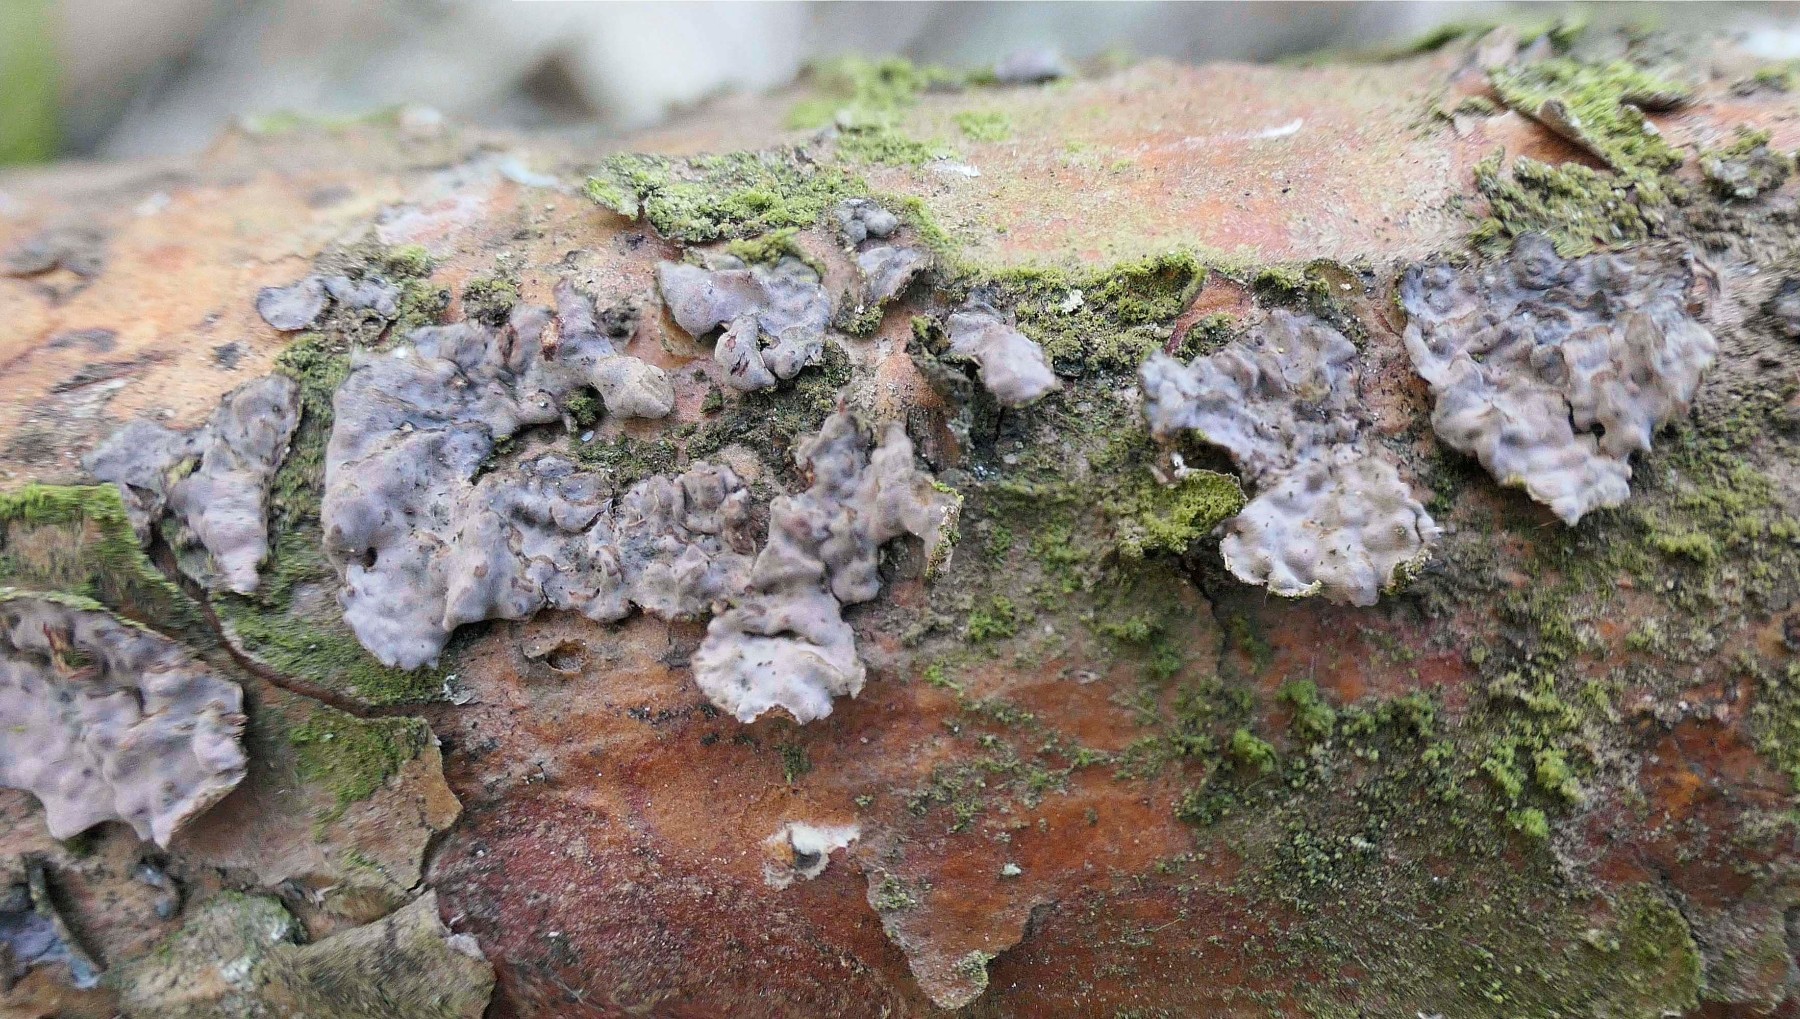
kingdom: Fungi
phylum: Basidiomycota
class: Agaricomycetes
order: Russulales
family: Peniophoraceae
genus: Peniophora
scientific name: Peniophora pini
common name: fyrre-voksskind
